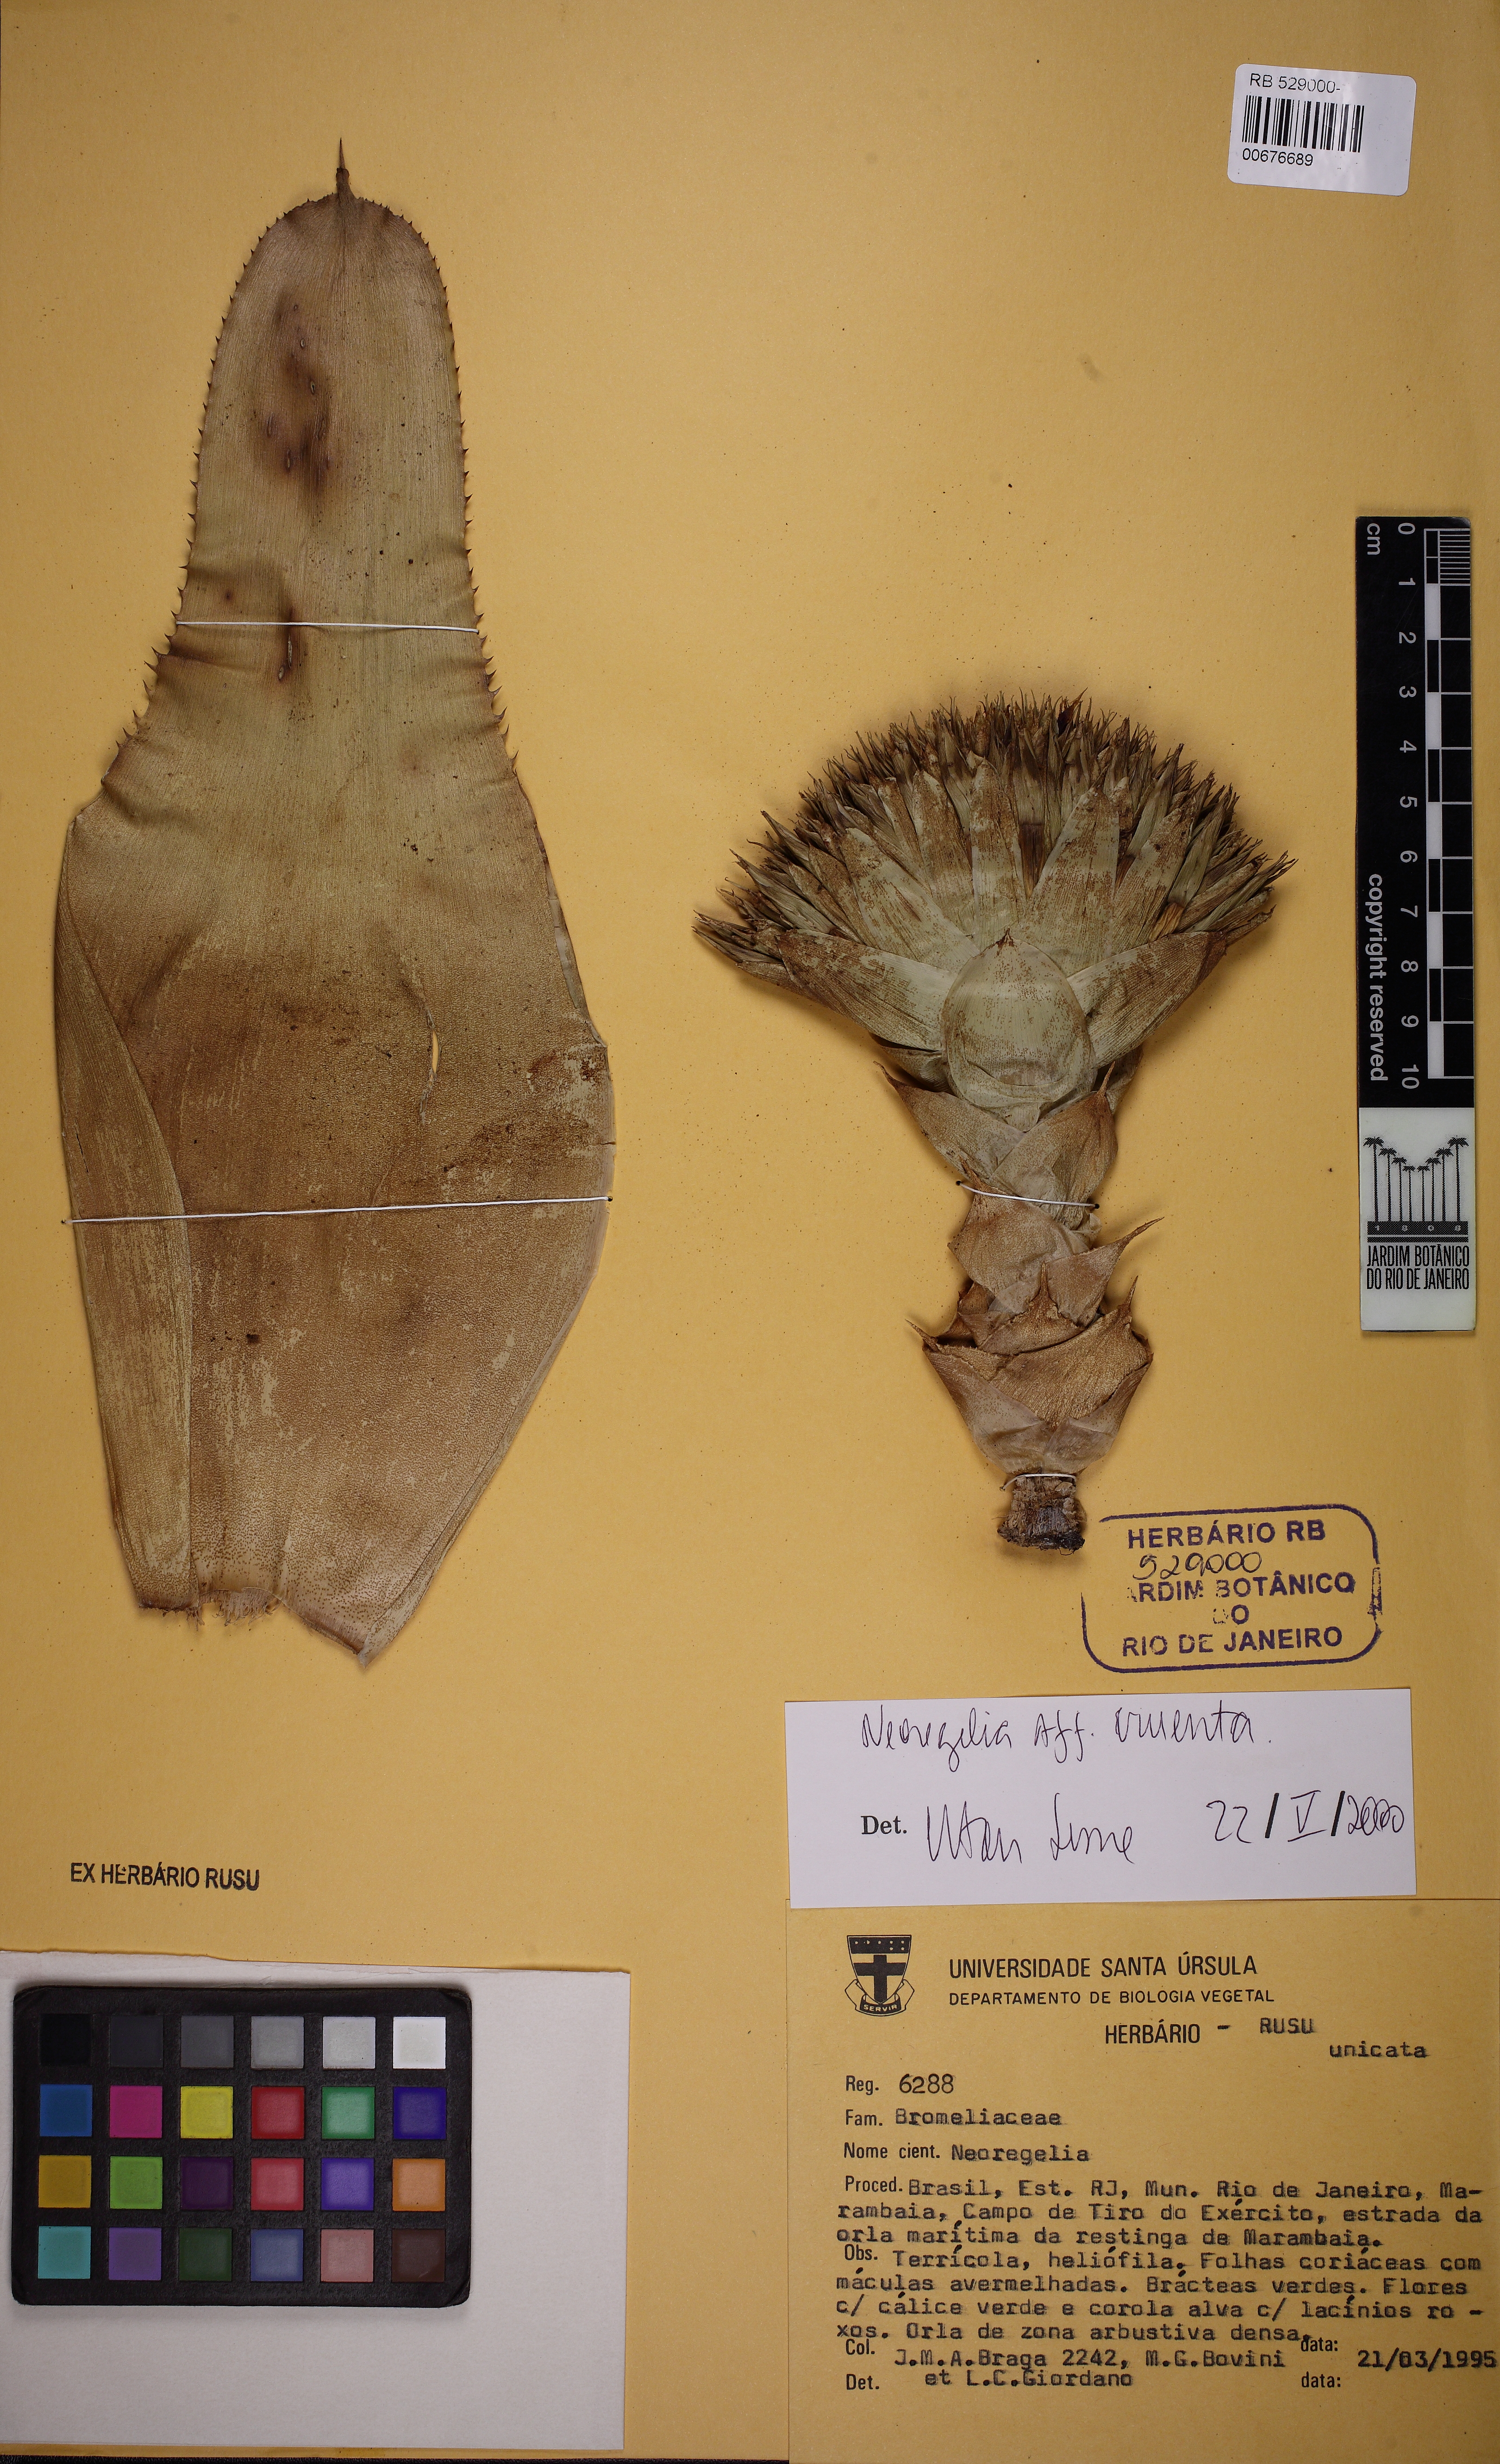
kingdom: Plantae
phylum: Tracheophyta
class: Liliopsida
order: Poales
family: Bromeliaceae
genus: Neoregelia
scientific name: Neoregelia cruenta
